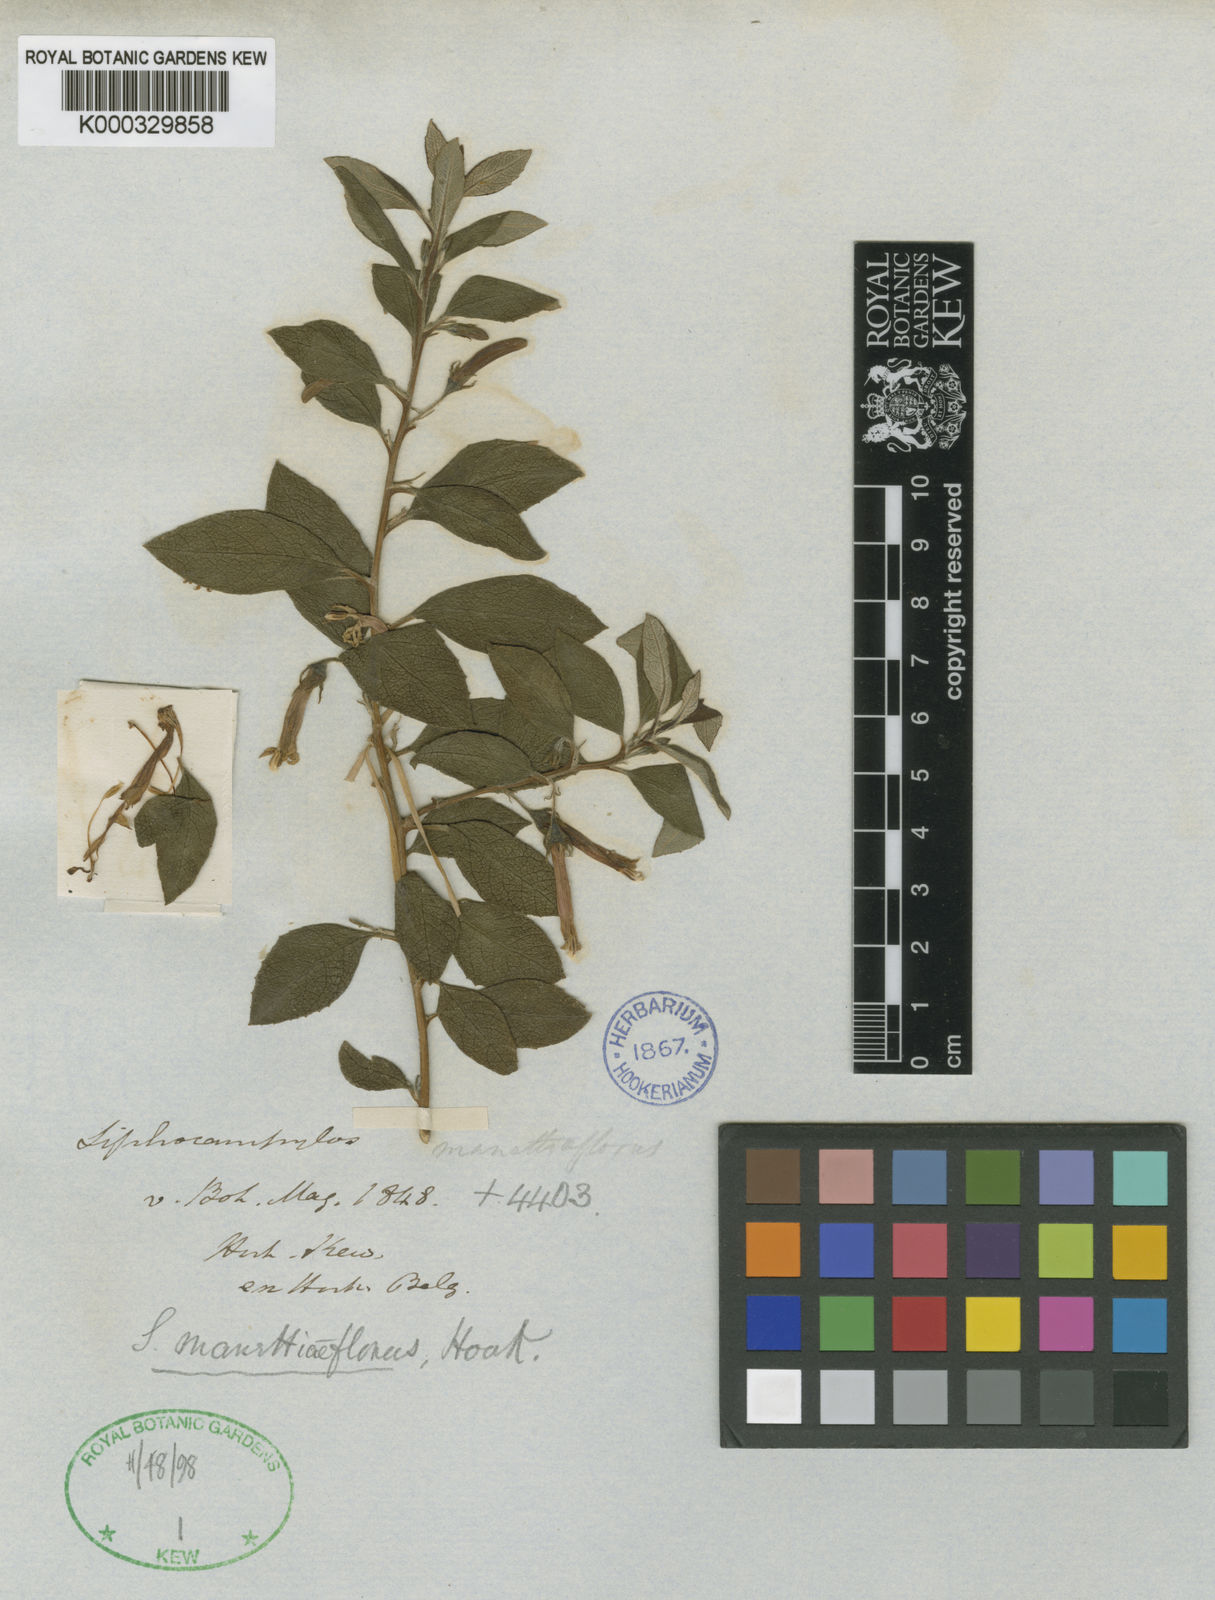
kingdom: Plantae
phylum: Tracheophyta
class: Magnoliopsida
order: Asterales
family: Campanulaceae
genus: Siphocampylus
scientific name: Siphocampylus
